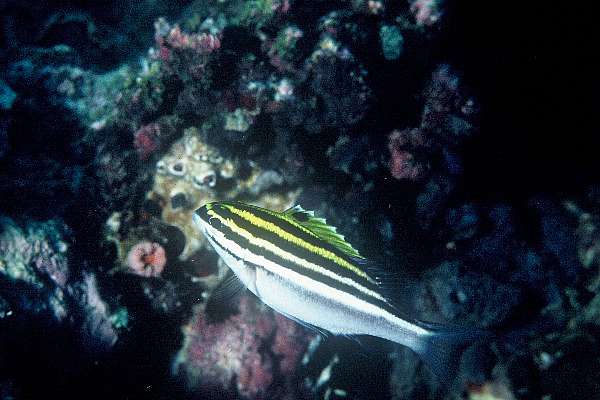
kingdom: Animalia
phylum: Chordata
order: Perciformes
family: Nemipteridae
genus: Scolopsis
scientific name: Scolopsis bilineata
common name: Two-lined monocle bream
